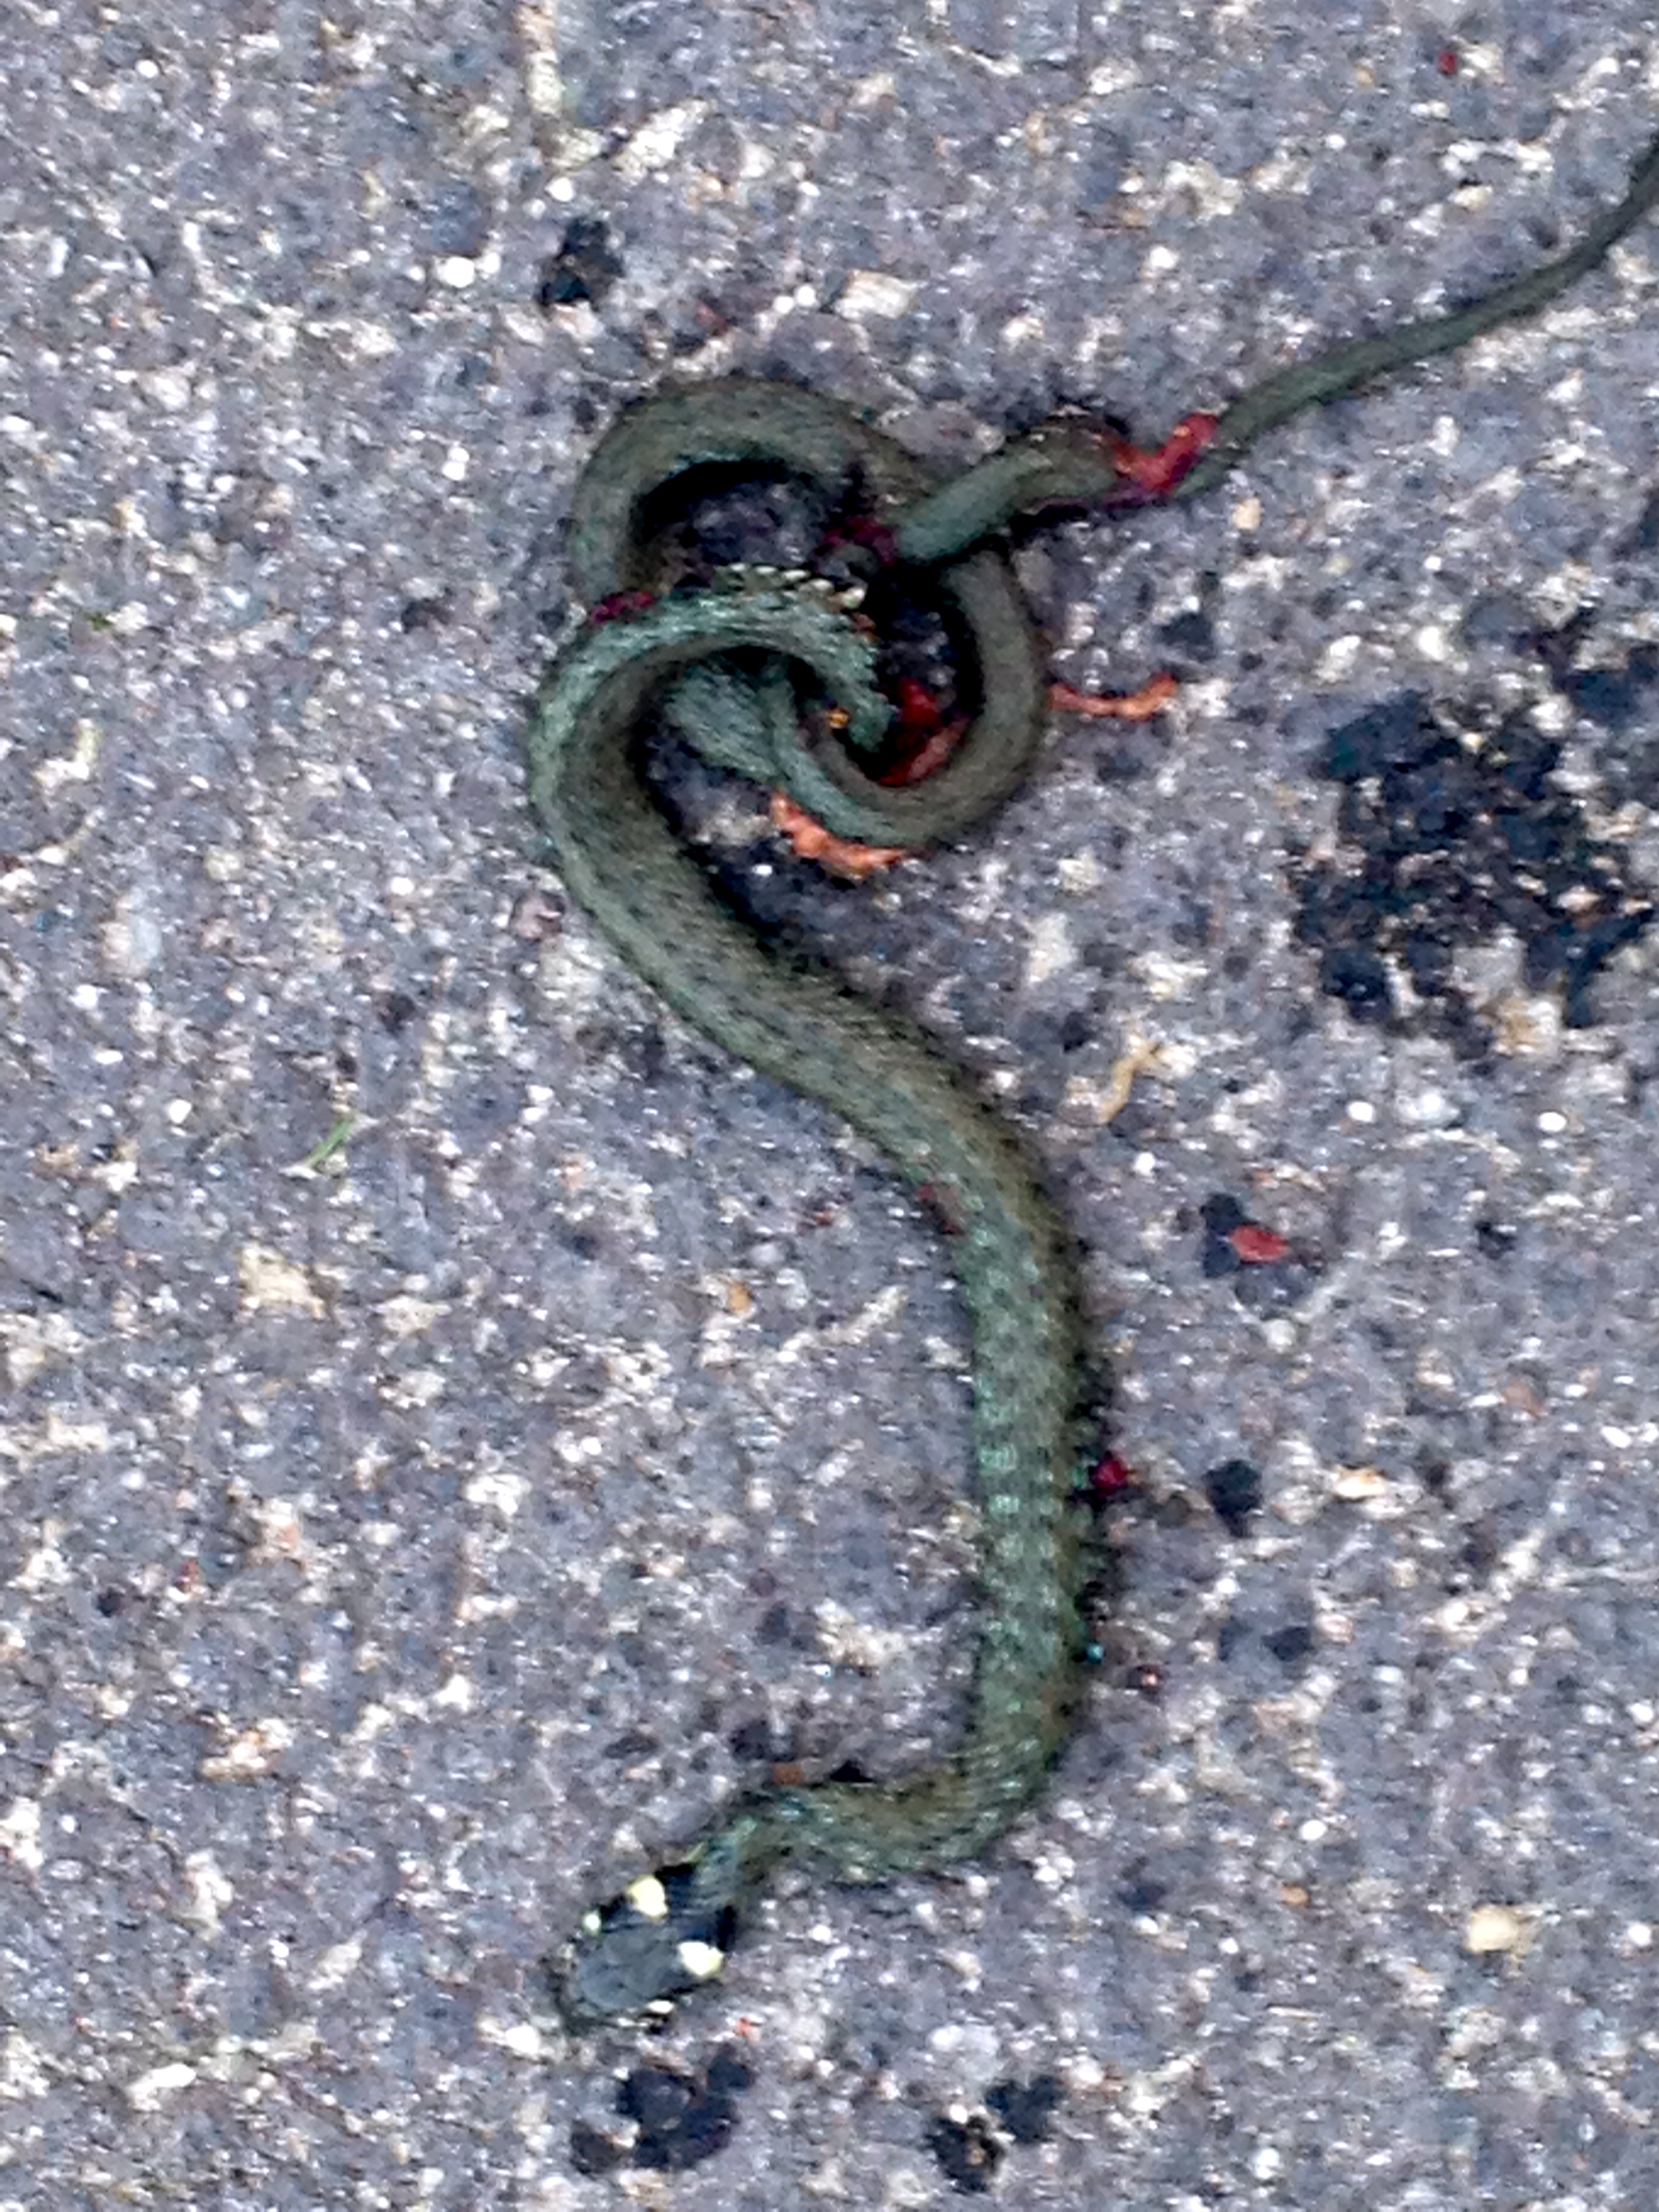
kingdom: Animalia
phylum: Chordata
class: Squamata
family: Colubridae
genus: Natrix
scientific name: Natrix natrix
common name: Grass snake
